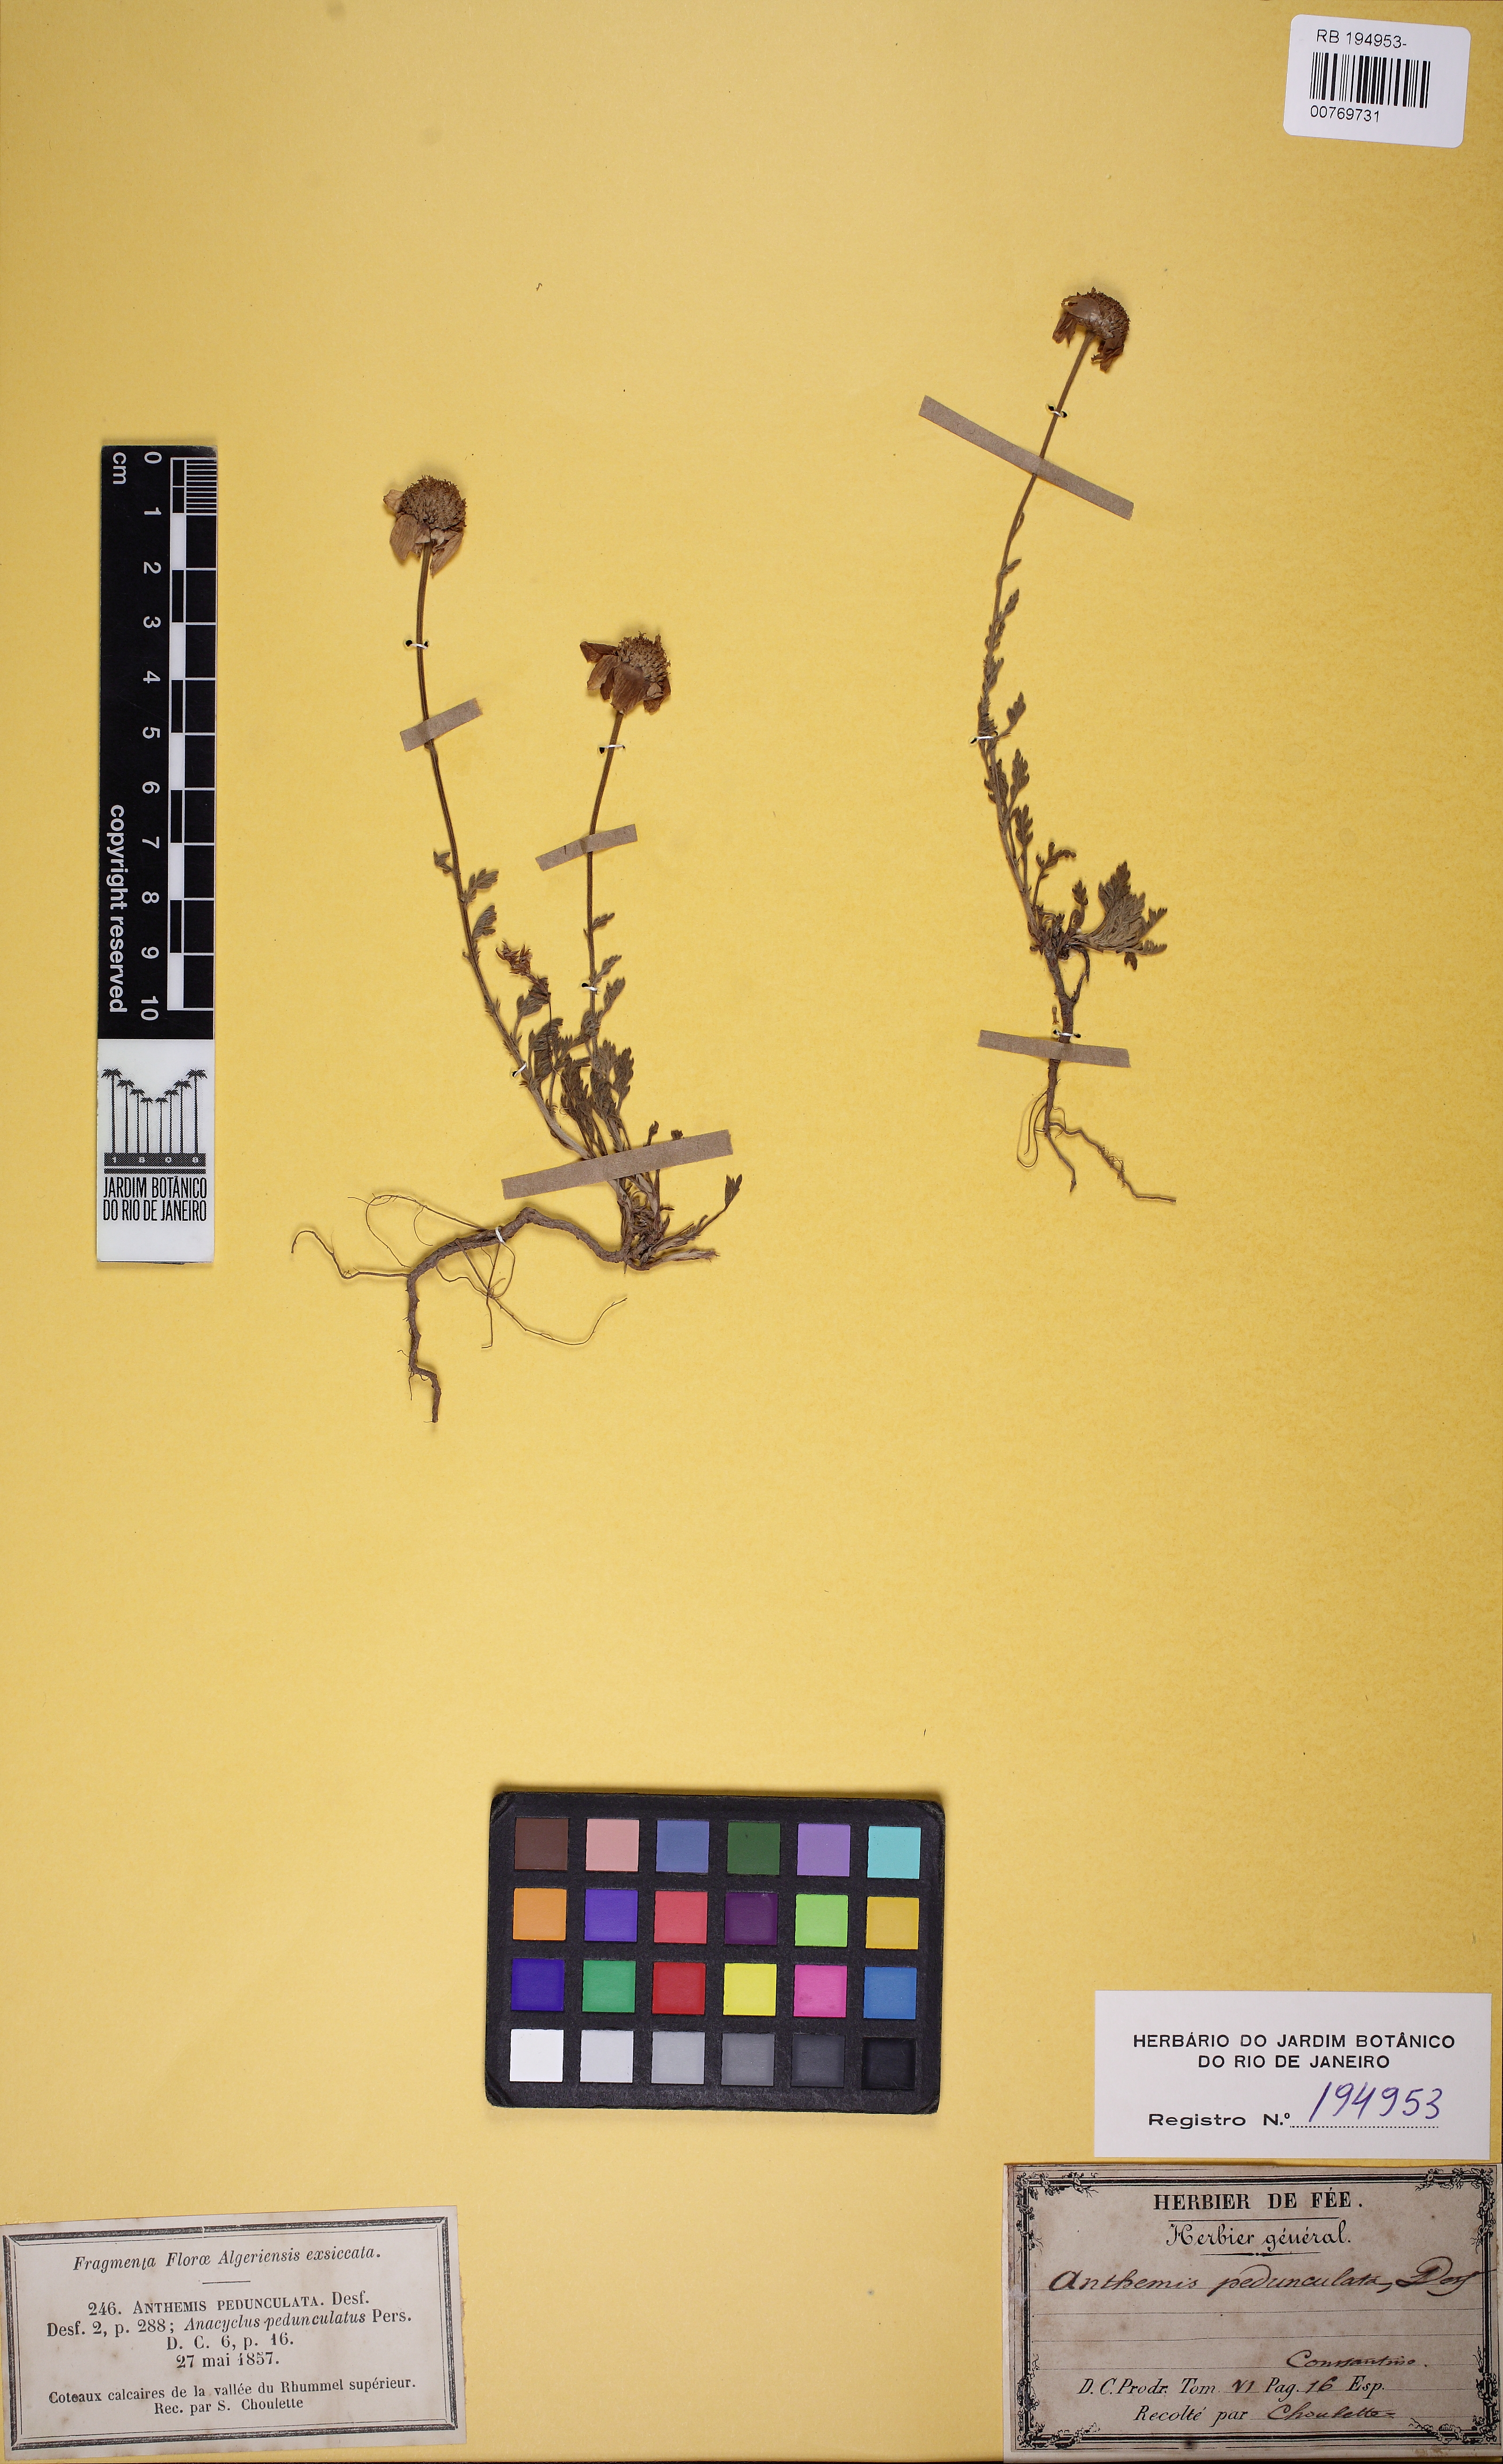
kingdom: Plantae
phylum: Tracheophyta
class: Magnoliopsida
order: Asterales
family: Asteraceae
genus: Anthemis
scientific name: Anthemis pedunculata
